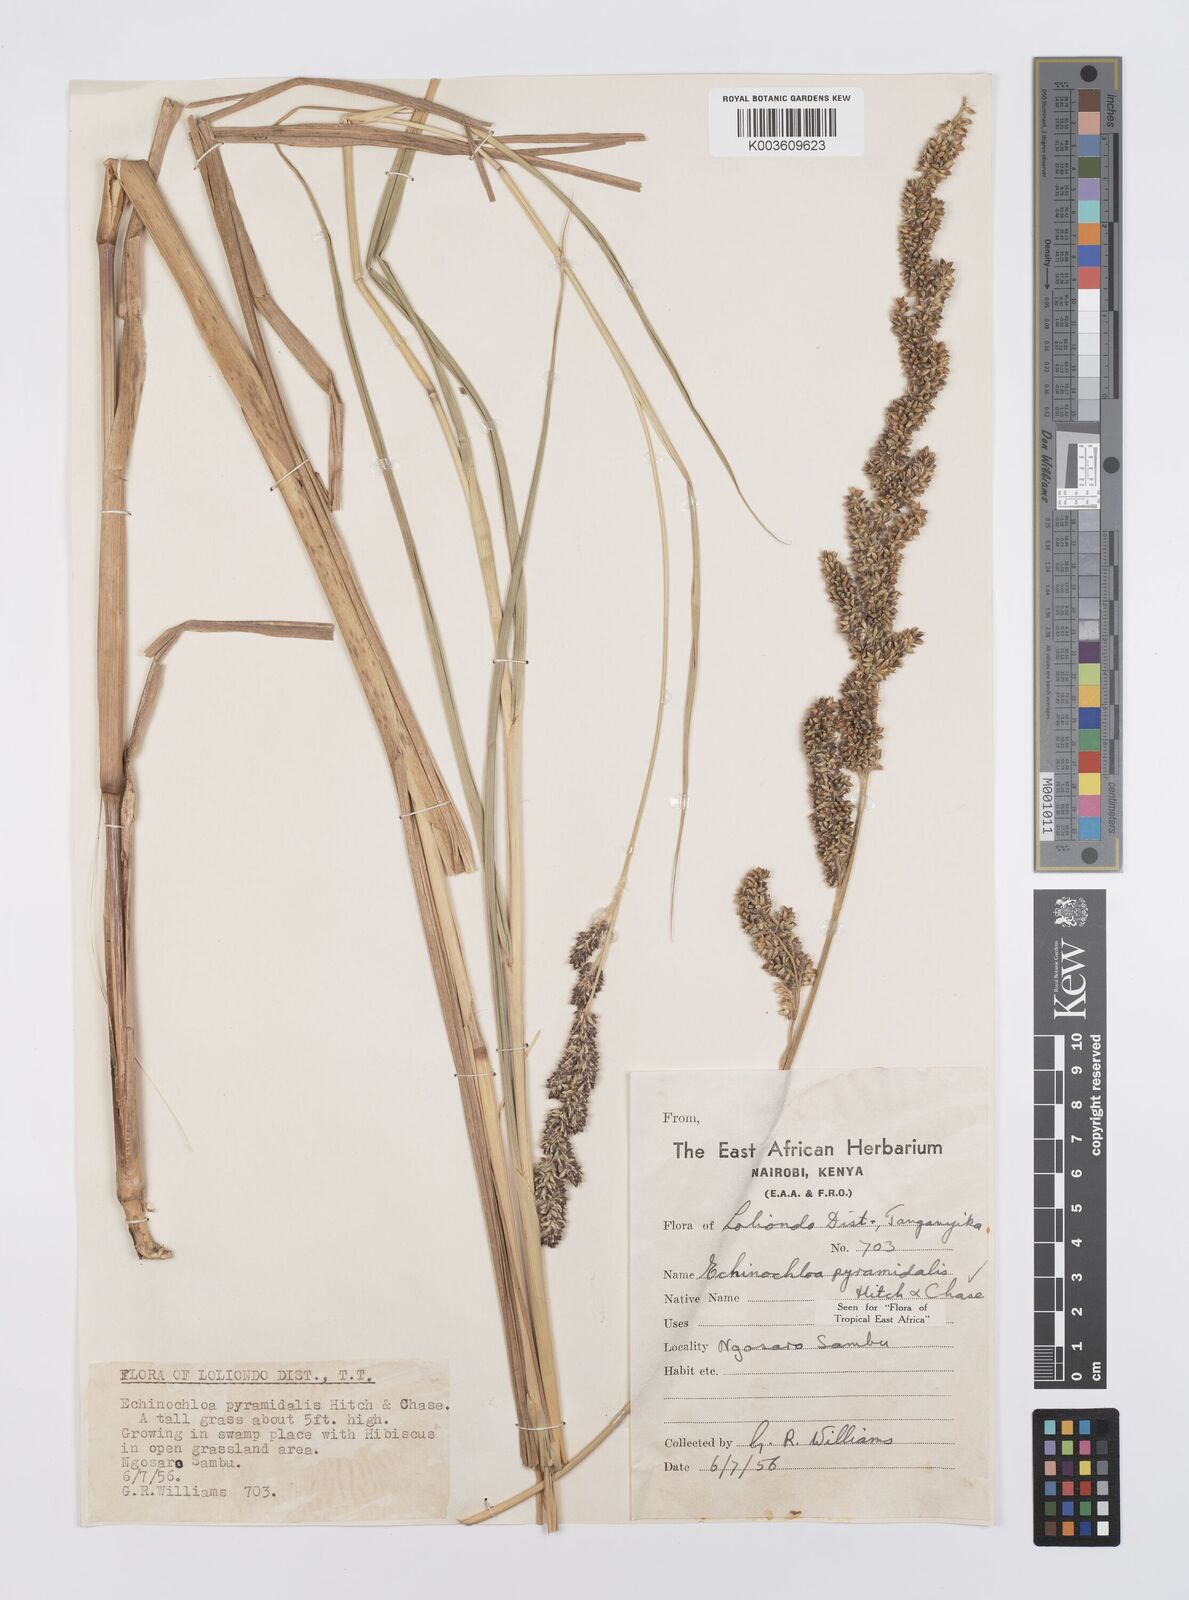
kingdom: Plantae
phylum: Tracheophyta
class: Liliopsida
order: Poales
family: Poaceae
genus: Echinochloa
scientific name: Echinochloa pyramidalis
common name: Antelope grass
